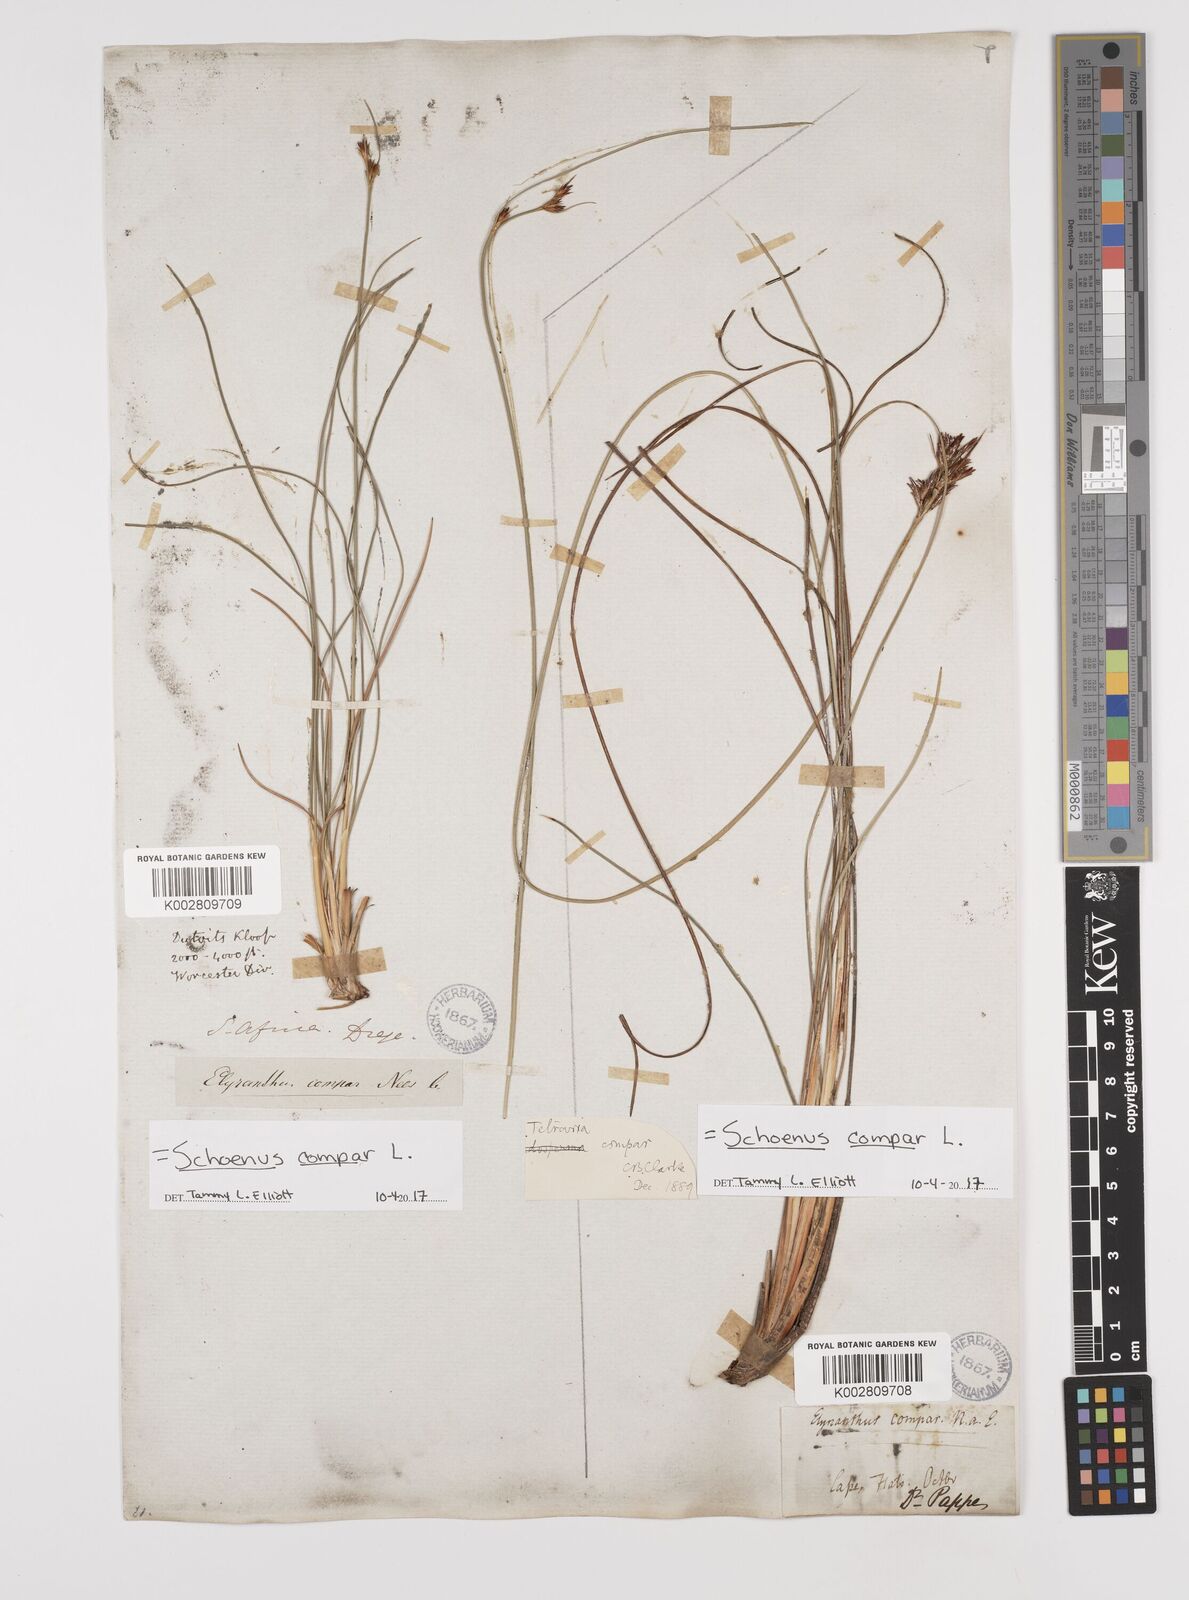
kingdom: Plantae
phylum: Tracheophyta
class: Liliopsida
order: Poales
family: Cyperaceae
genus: Schoenus
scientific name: Schoenus compar
